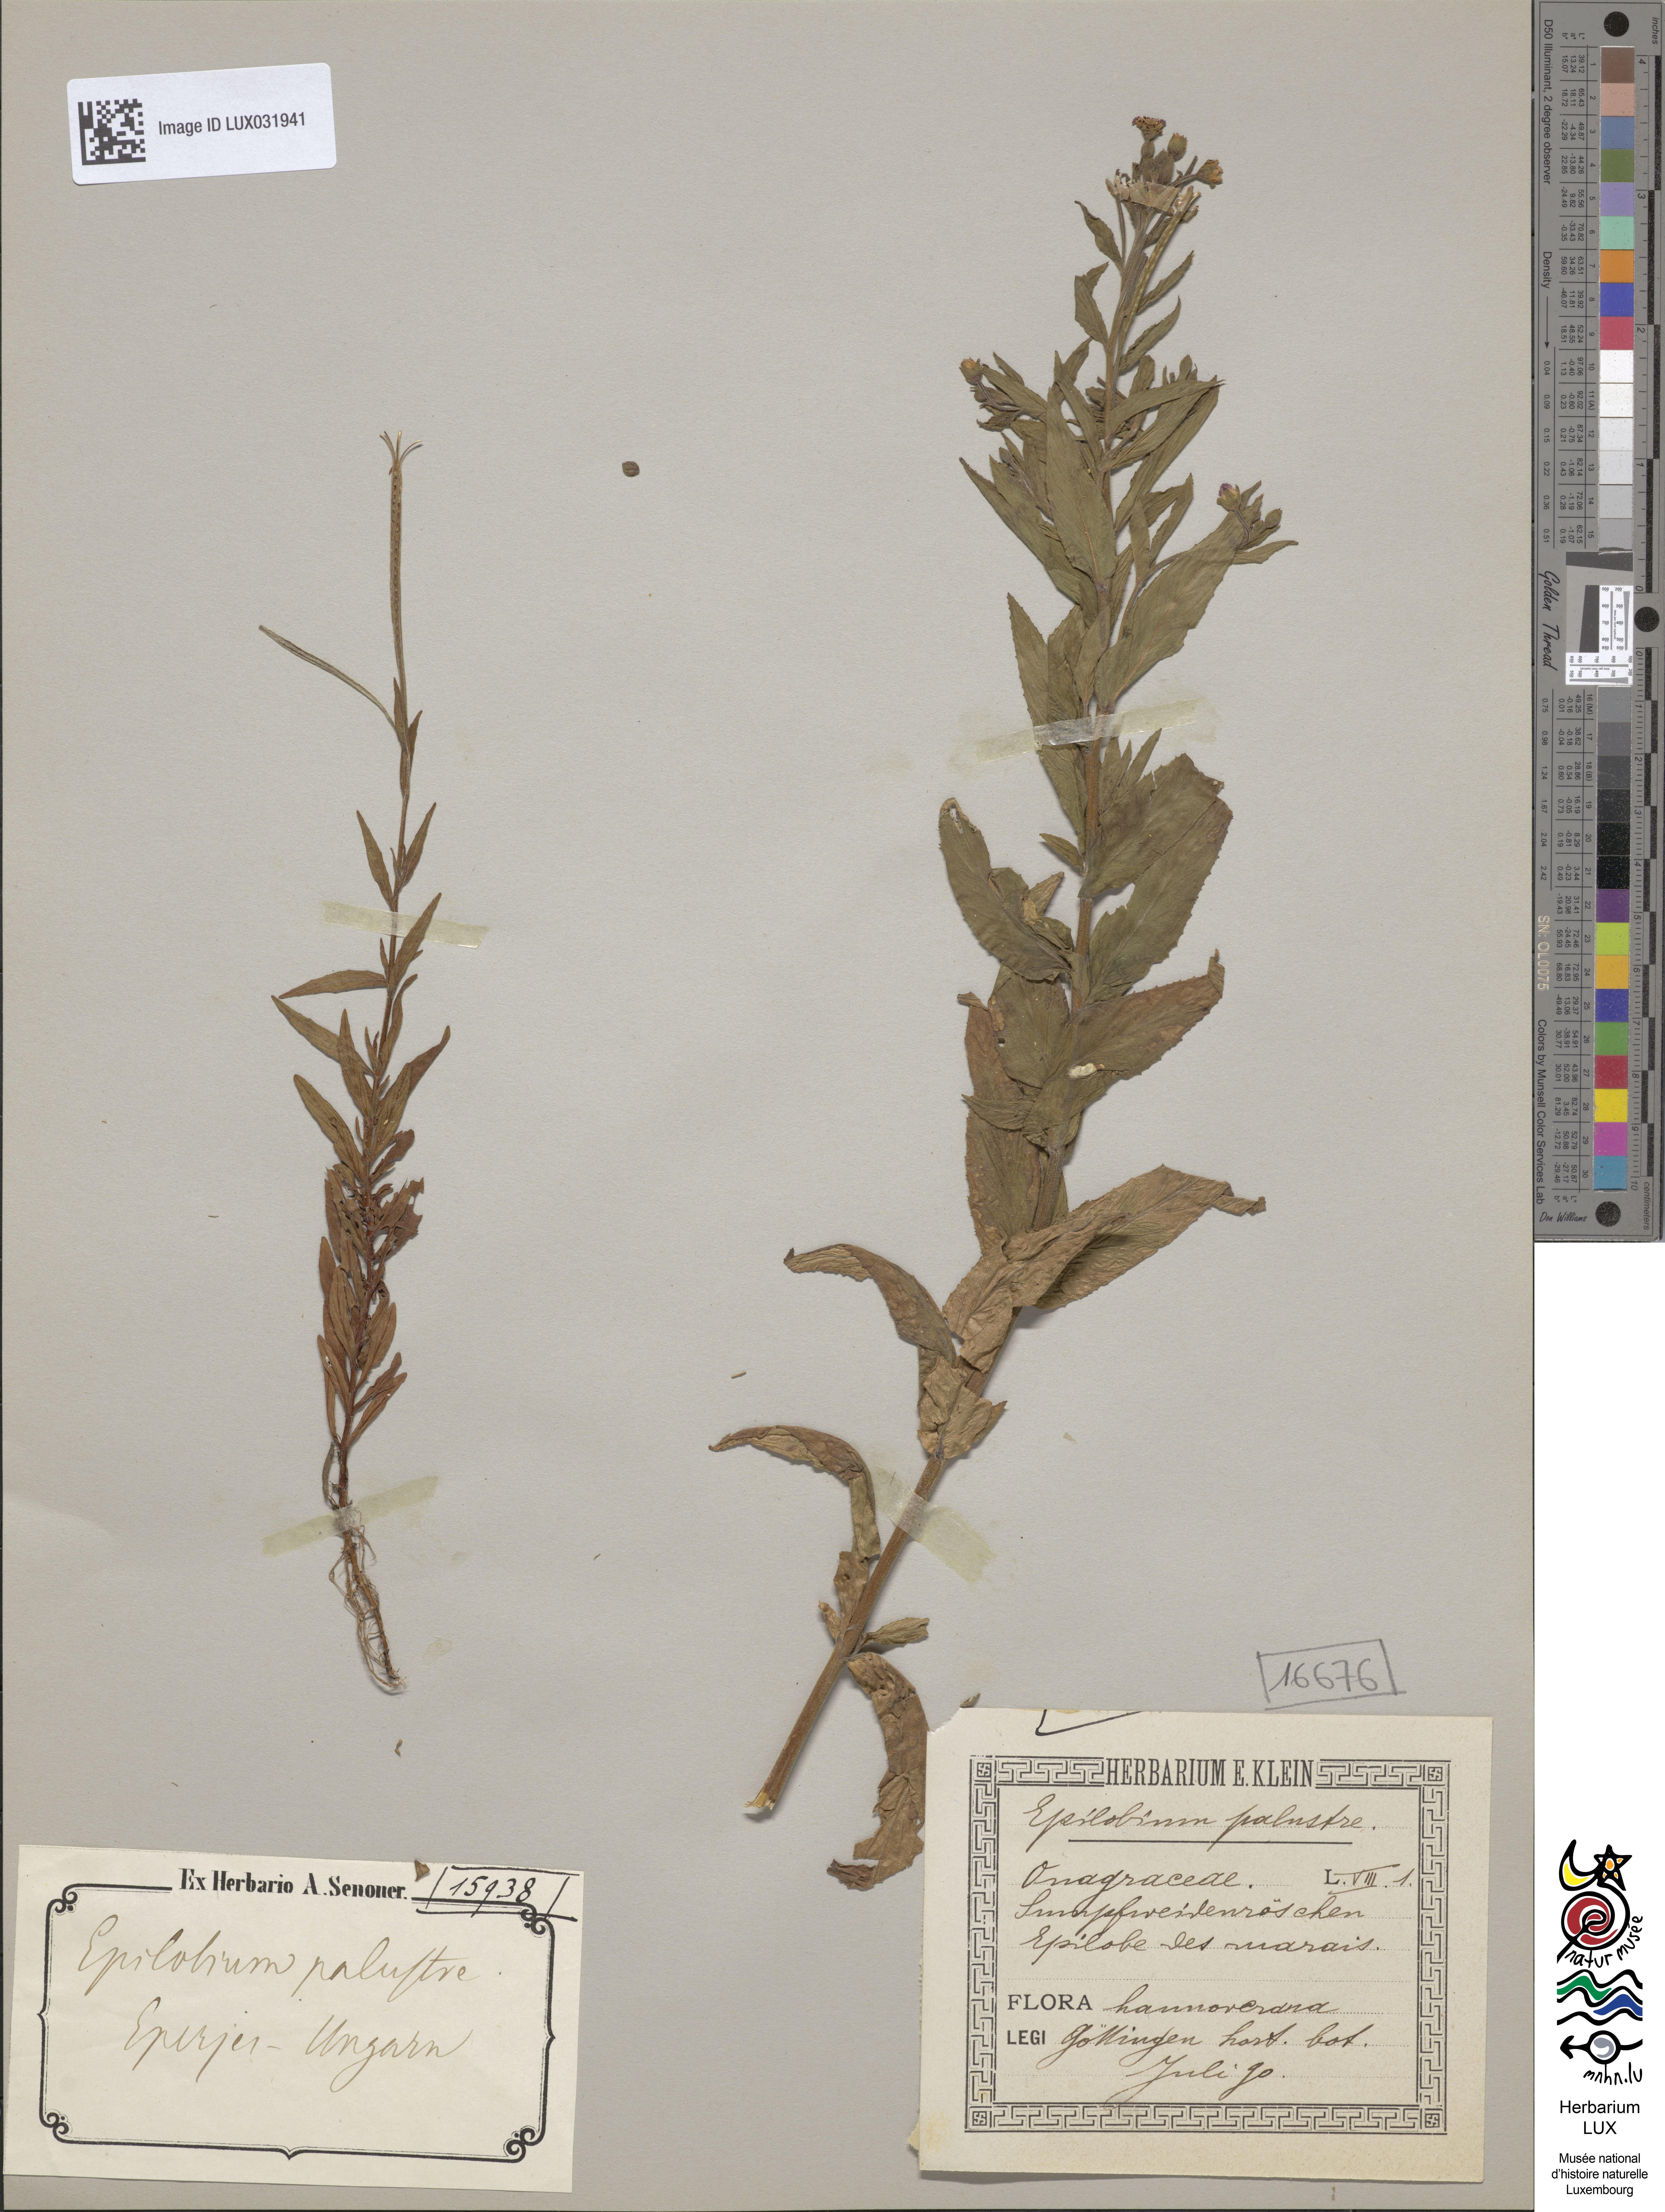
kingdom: Plantae
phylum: Tracheophyta
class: Magnoliopsida
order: Myrtales
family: Onagraceae
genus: Epilobium
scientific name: Epilobium palustre
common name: Marsh willowherb
